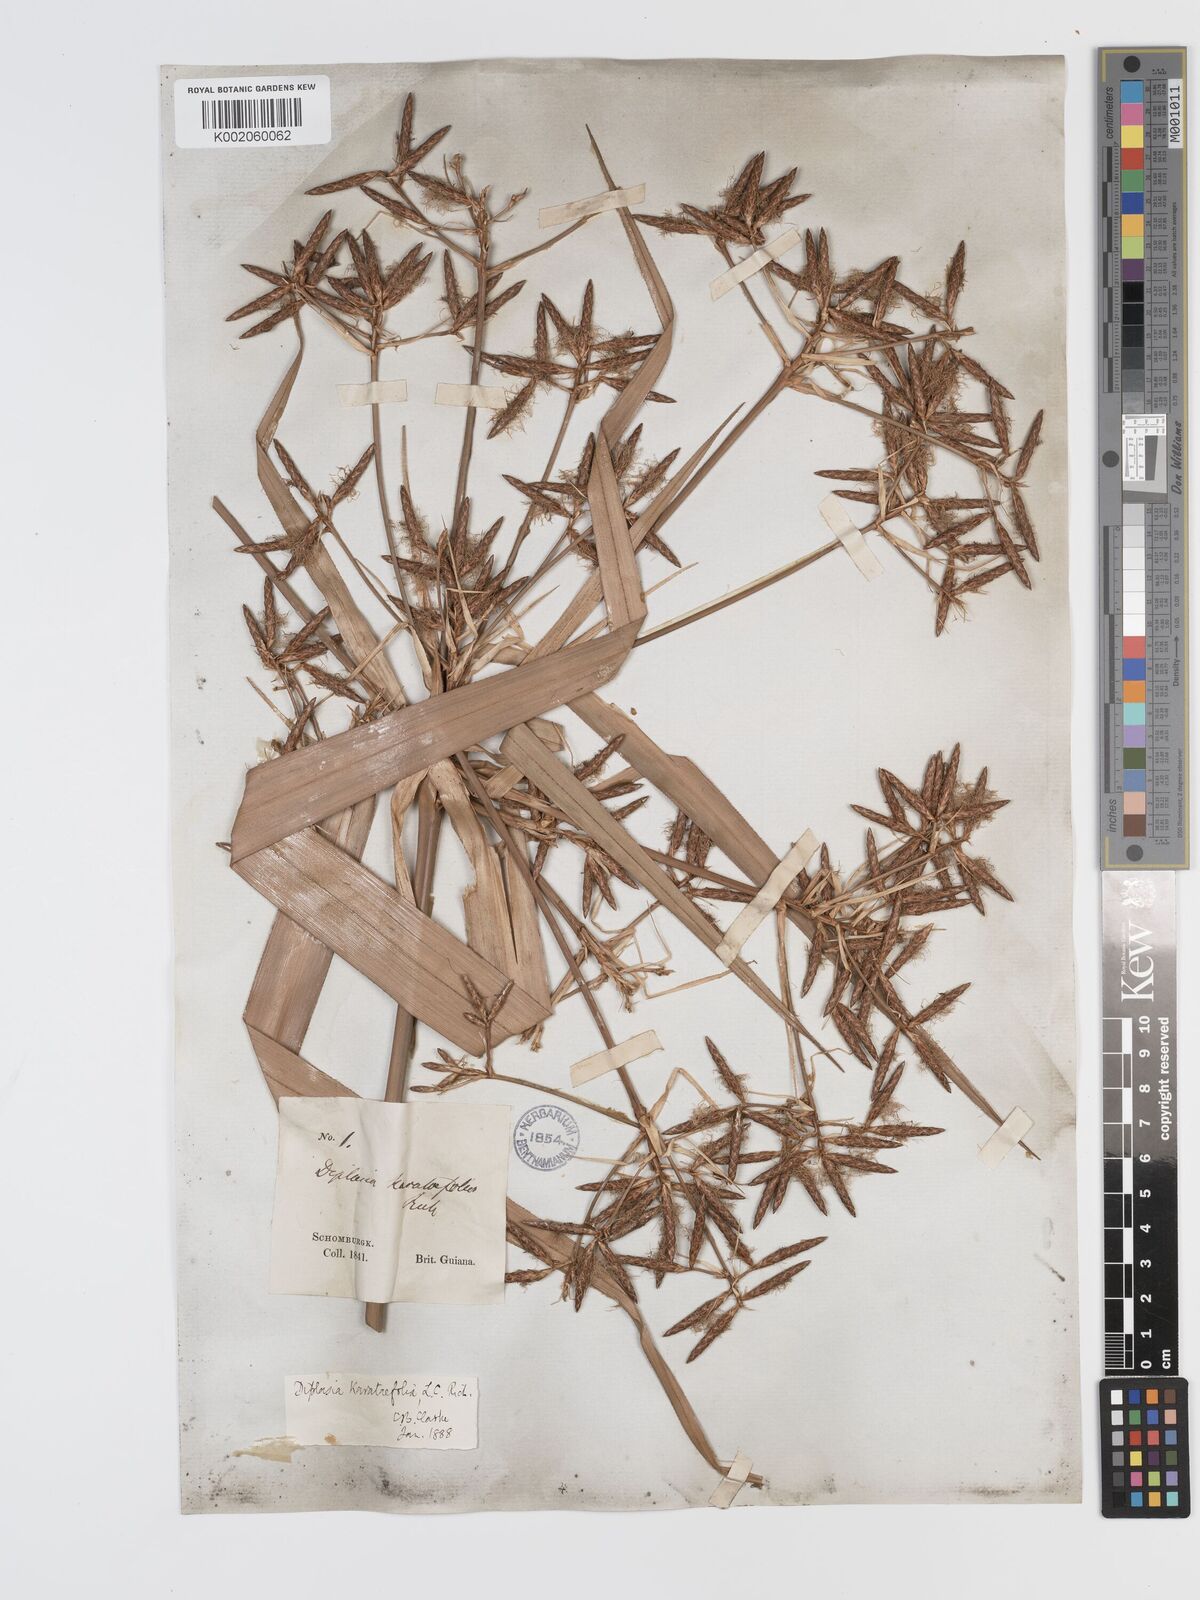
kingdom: Plantae
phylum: Tracheophyta
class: Liliopsida
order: Poales
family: Cyperaceae
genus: Diplasia
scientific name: Diplasia karatifolia
